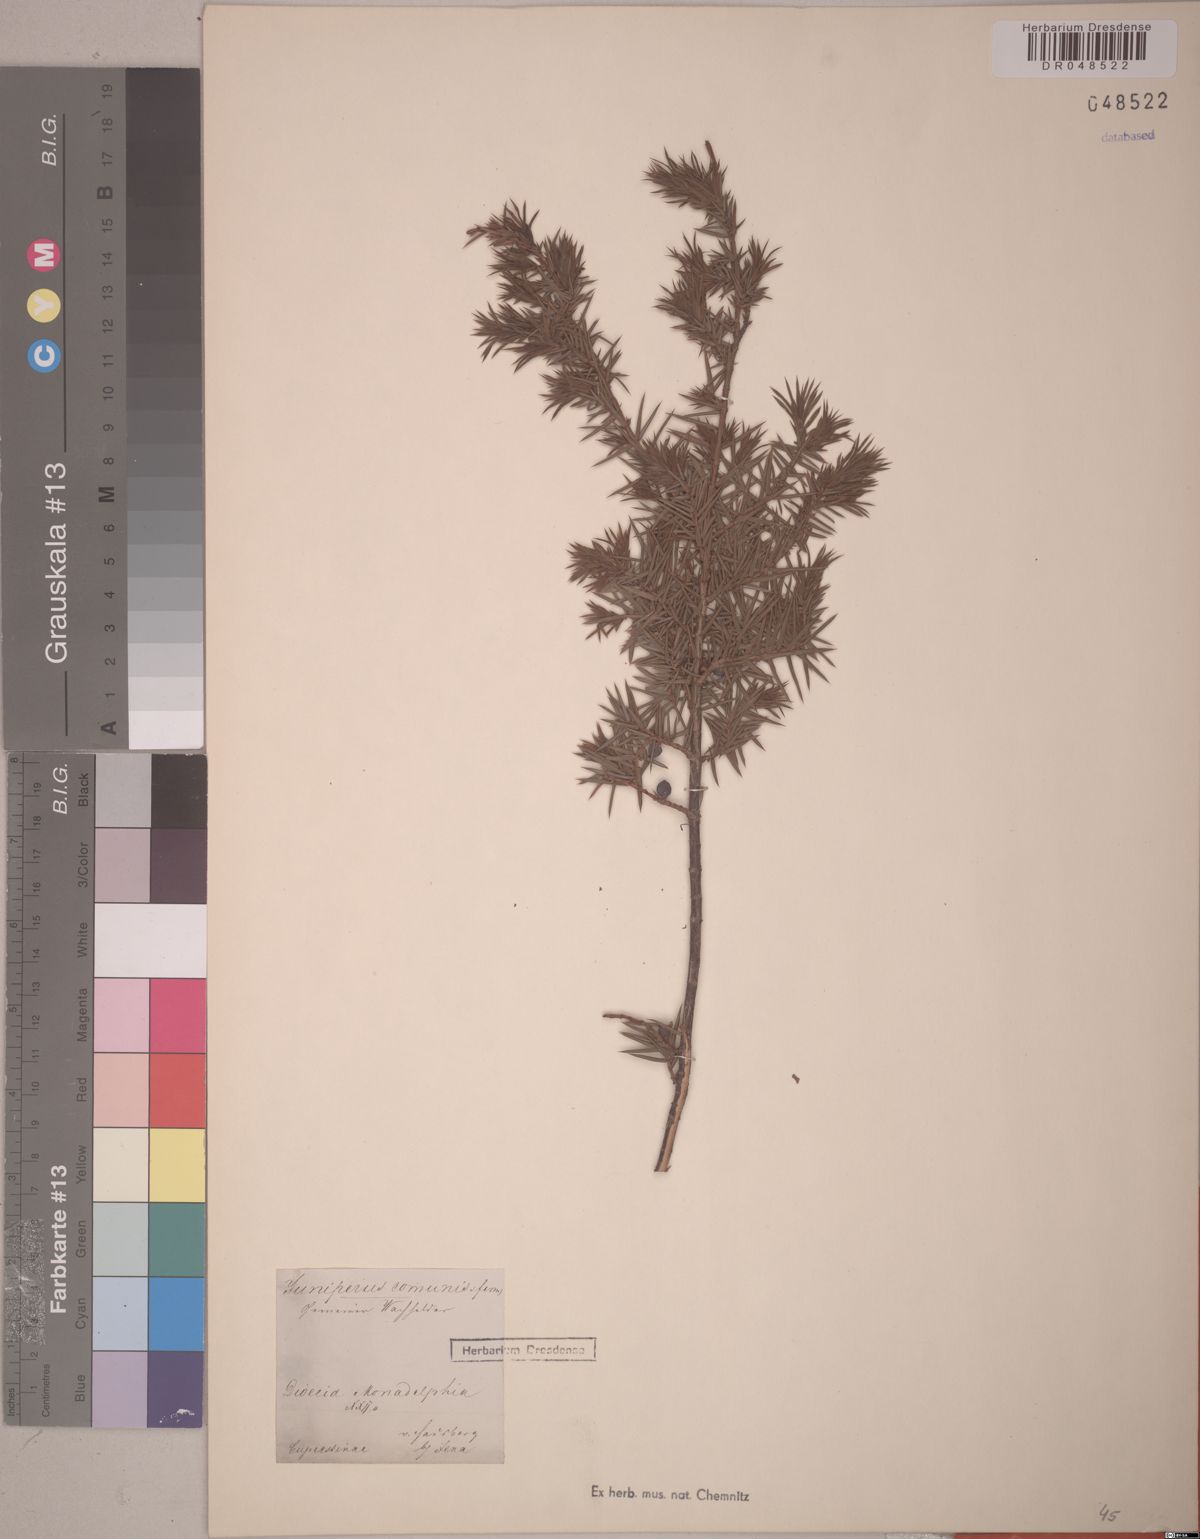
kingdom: Plantae
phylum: Tracheophyta
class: Pinopsida
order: Pinales
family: Cupressaceae
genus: Juniperus
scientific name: Juniperus communis
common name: Common juniper
